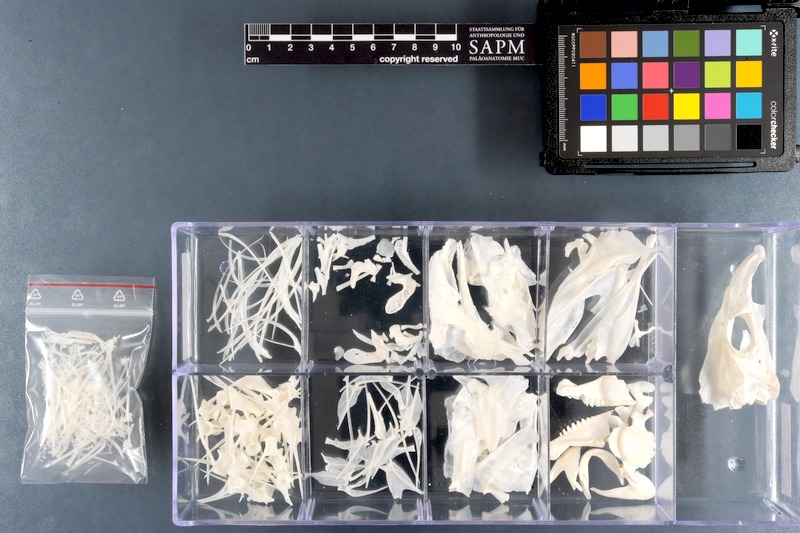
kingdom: Animalia
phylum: Chordata
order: Perciformes
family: Scaridae
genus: Hipposcarus
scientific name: Hipposcarus harid
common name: Candelamoa parrotfish
